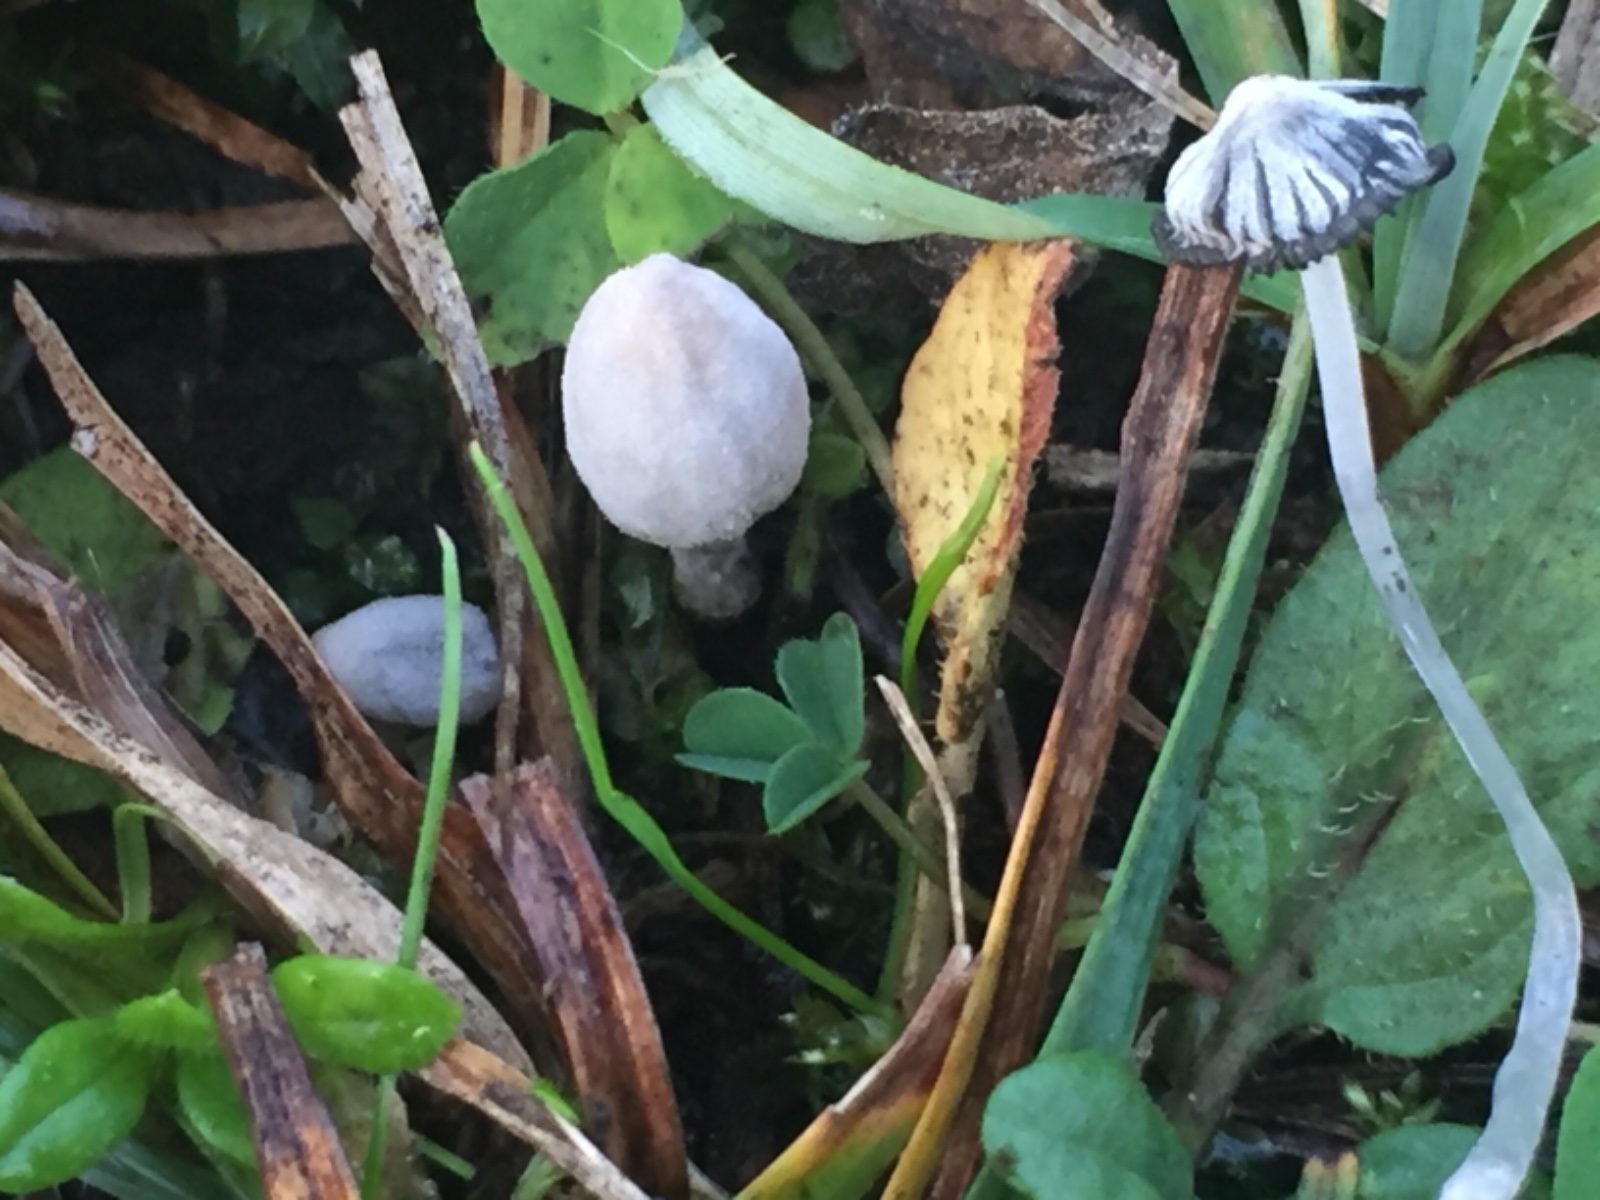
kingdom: Fungi
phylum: Basidiomycota
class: Agaricomycetes
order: Agaricales
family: Psathyrellaceae
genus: Coprinopsis
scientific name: Coprinopsis martinii
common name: rigkær-blækhat
